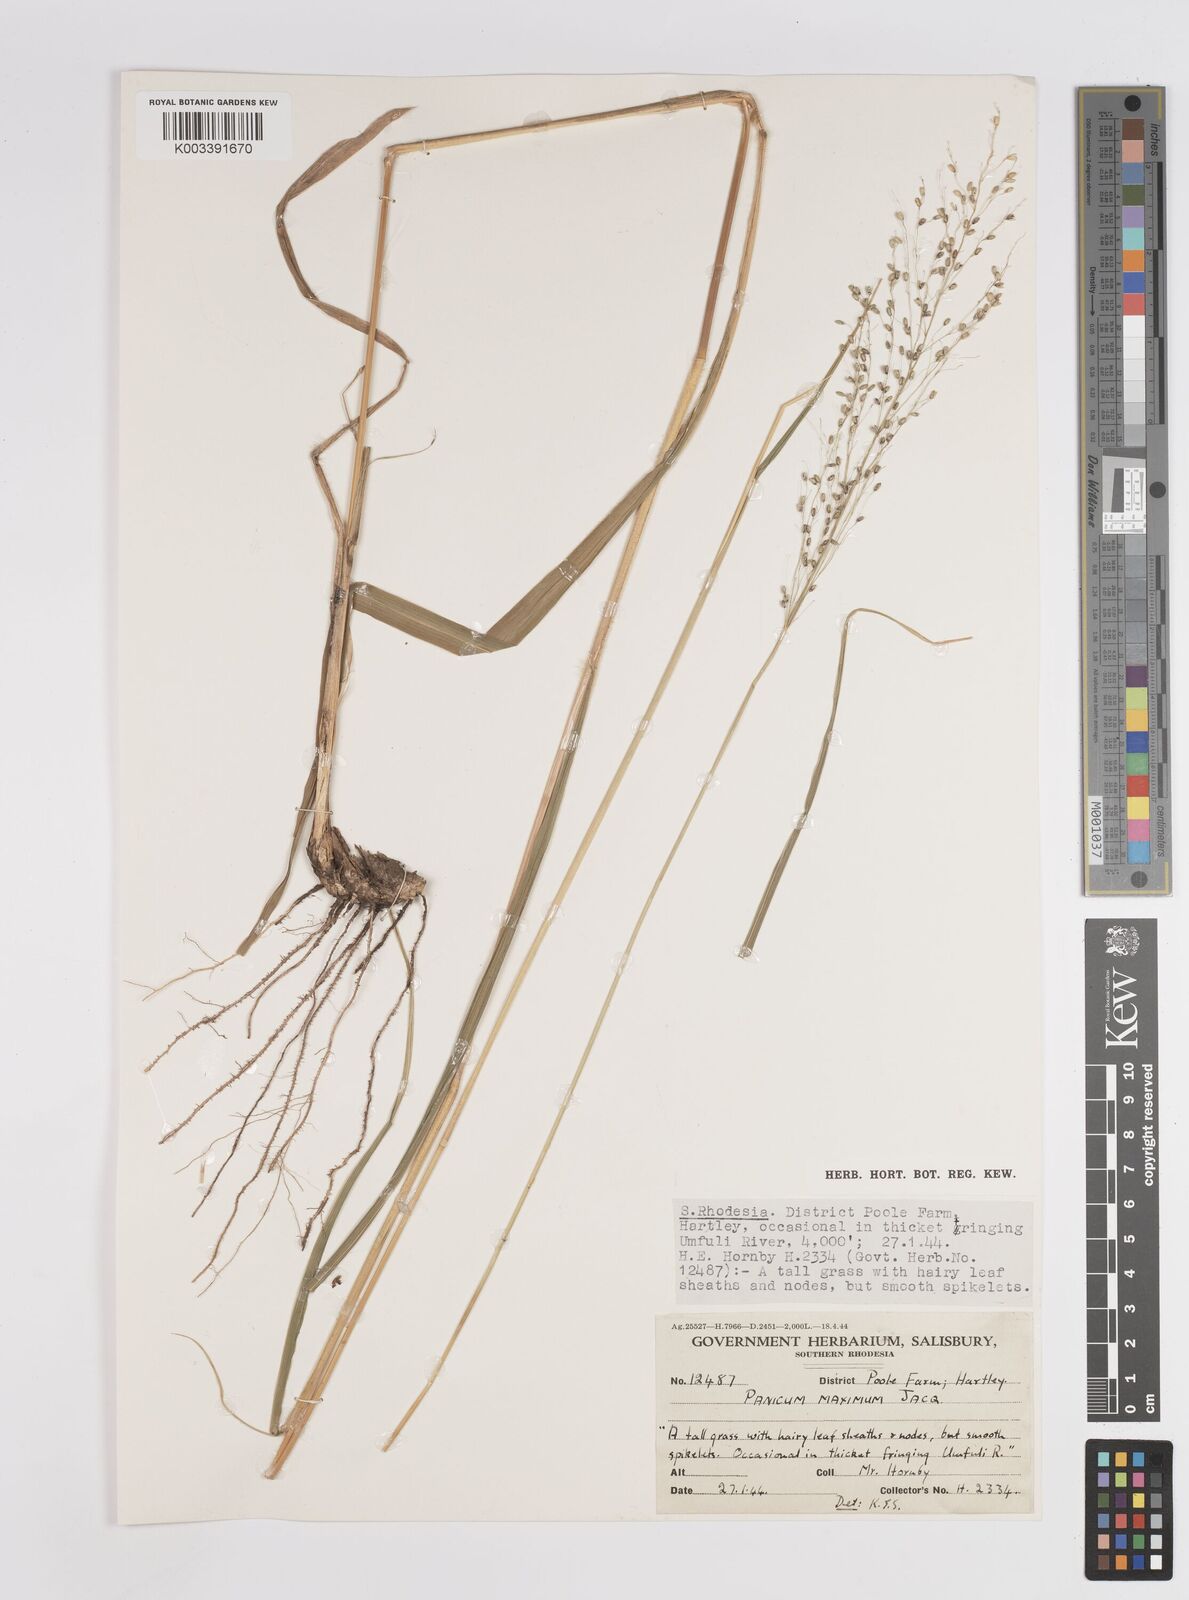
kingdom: Plantae
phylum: Tracheophyta
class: Liliopsida
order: Poales
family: Poaceae
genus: Megathyrsus
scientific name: Megathyrsus maximus
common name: Guineagrass
